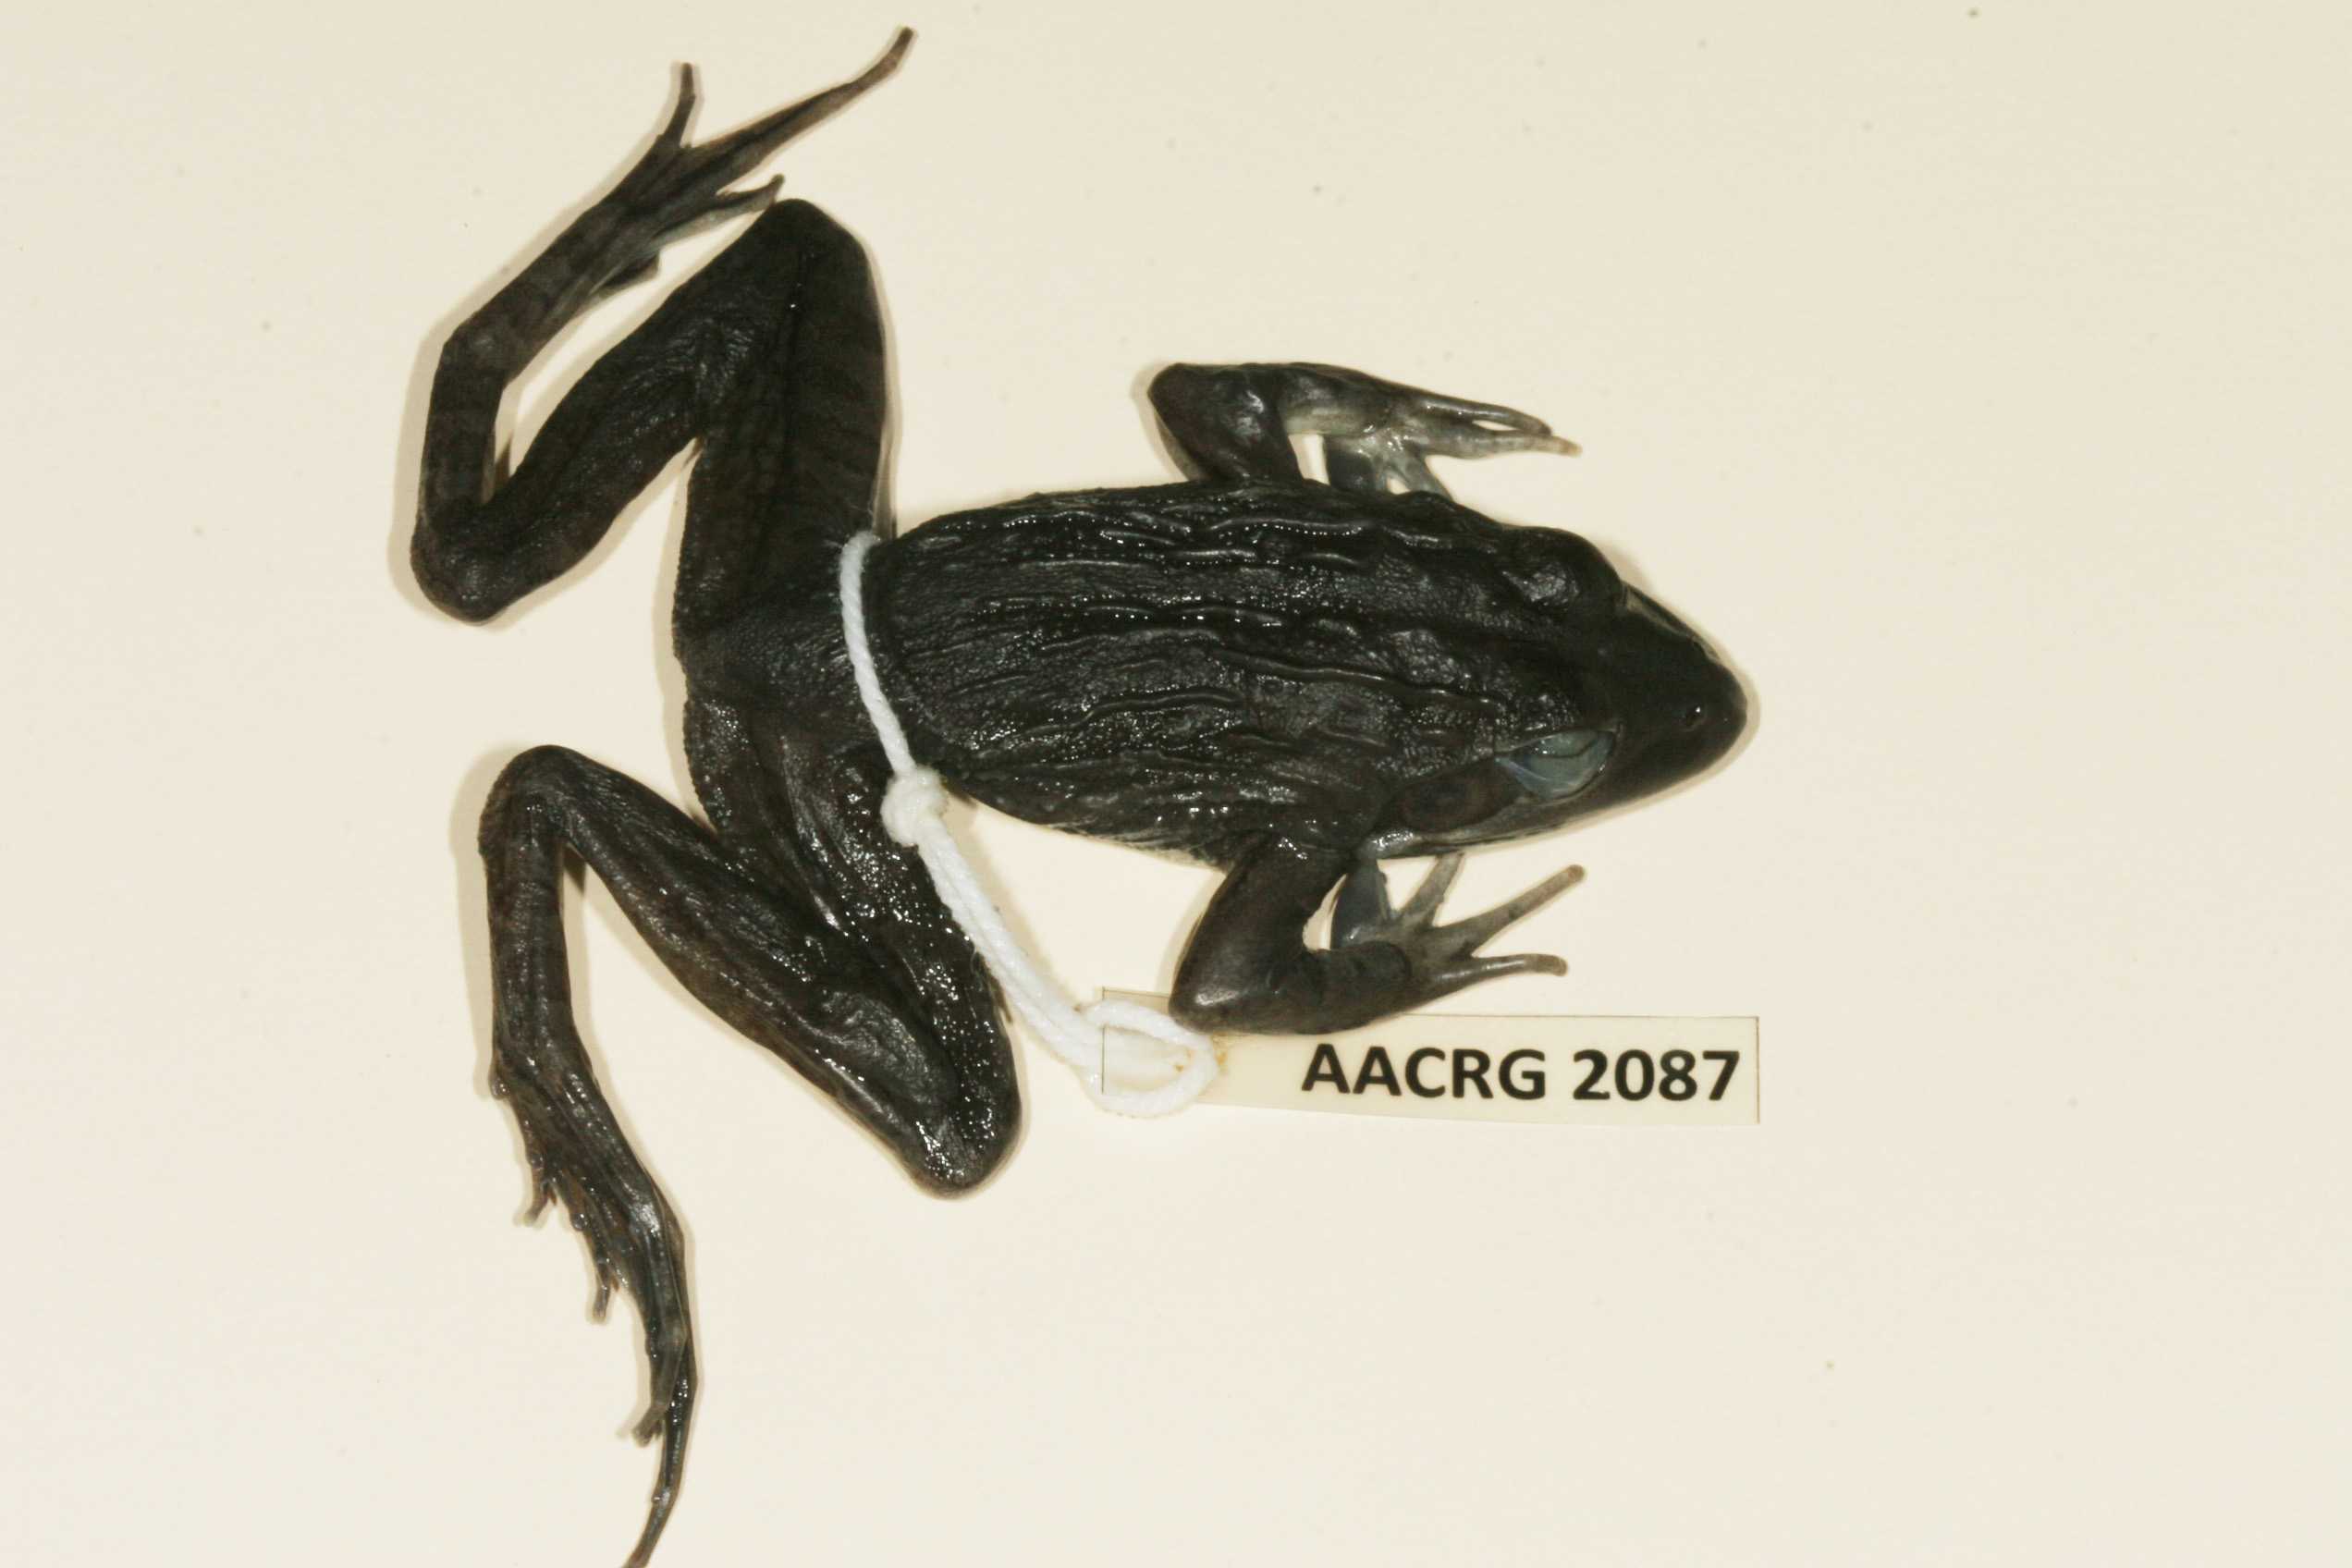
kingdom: Animalia
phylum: Chordata
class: Amphibia
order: Anura
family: Pyxicephalidae
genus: Amietia
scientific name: Amietia angolensis
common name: Dusky-throated frog
